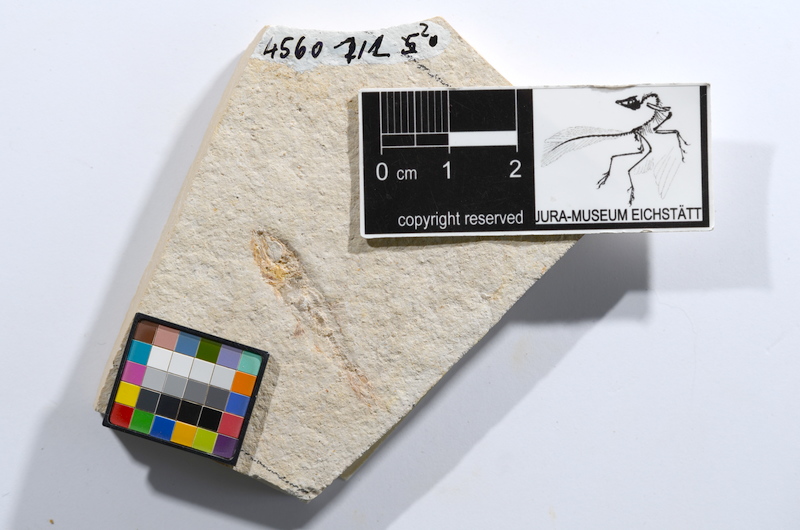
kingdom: Animalia
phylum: Chordata
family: Ascalaboidae
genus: Ascalabos
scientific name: Ascalabos voithii
